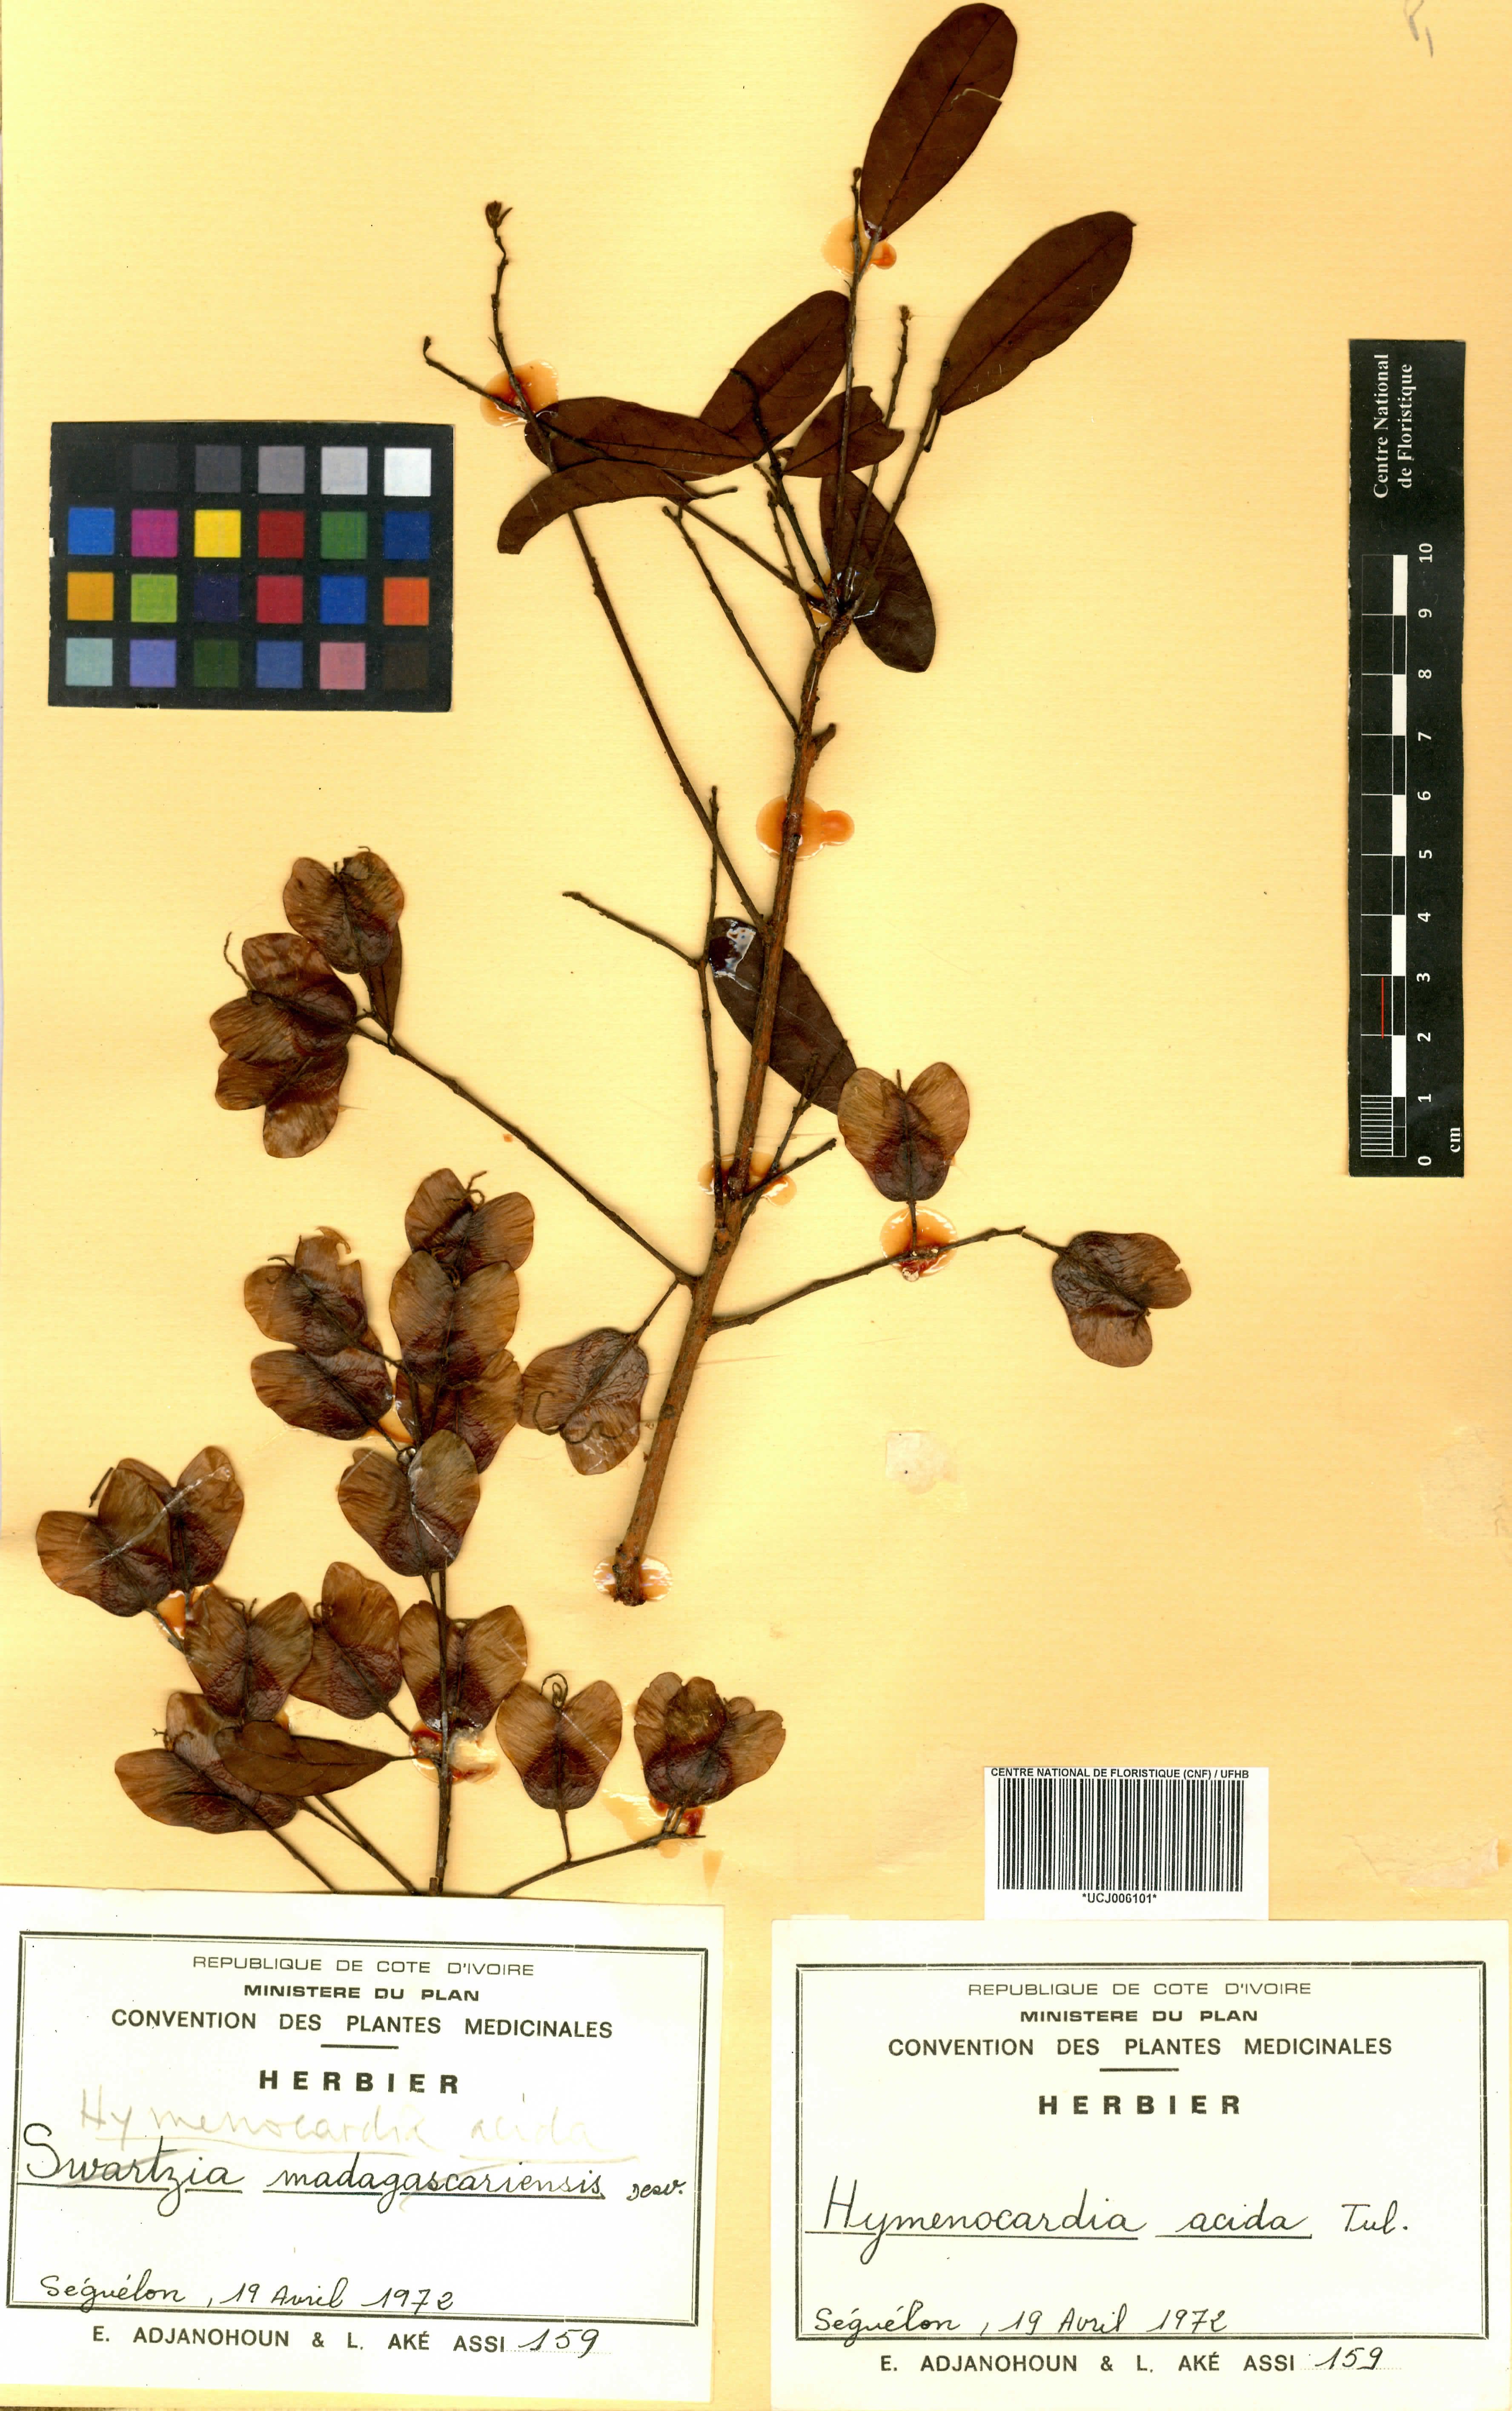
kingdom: Plantae
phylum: Tracheophyta
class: Magnoliopsida
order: Malpighiales
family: Phyllanthaceae
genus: Hymenocardia
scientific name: Hymenocardia acida
